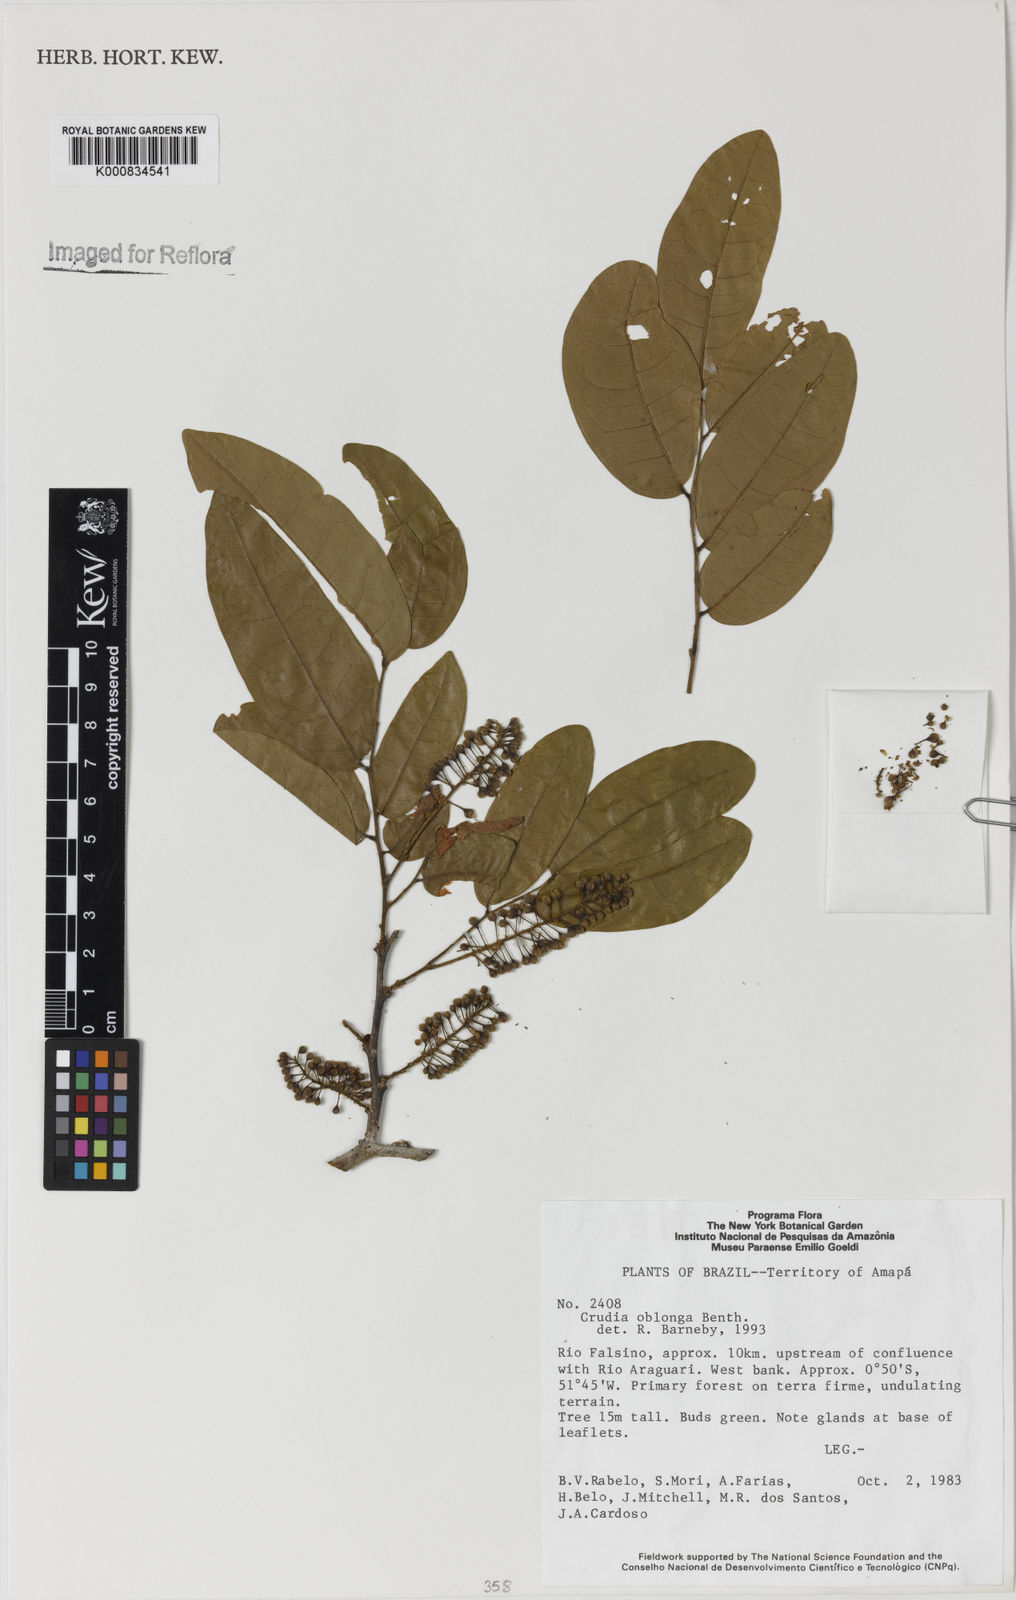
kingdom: Plantae
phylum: Tracheophyta
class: Magnoliopsida
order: Fabales
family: Fabaceae
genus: Crudia
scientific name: Crudia glaberrima
